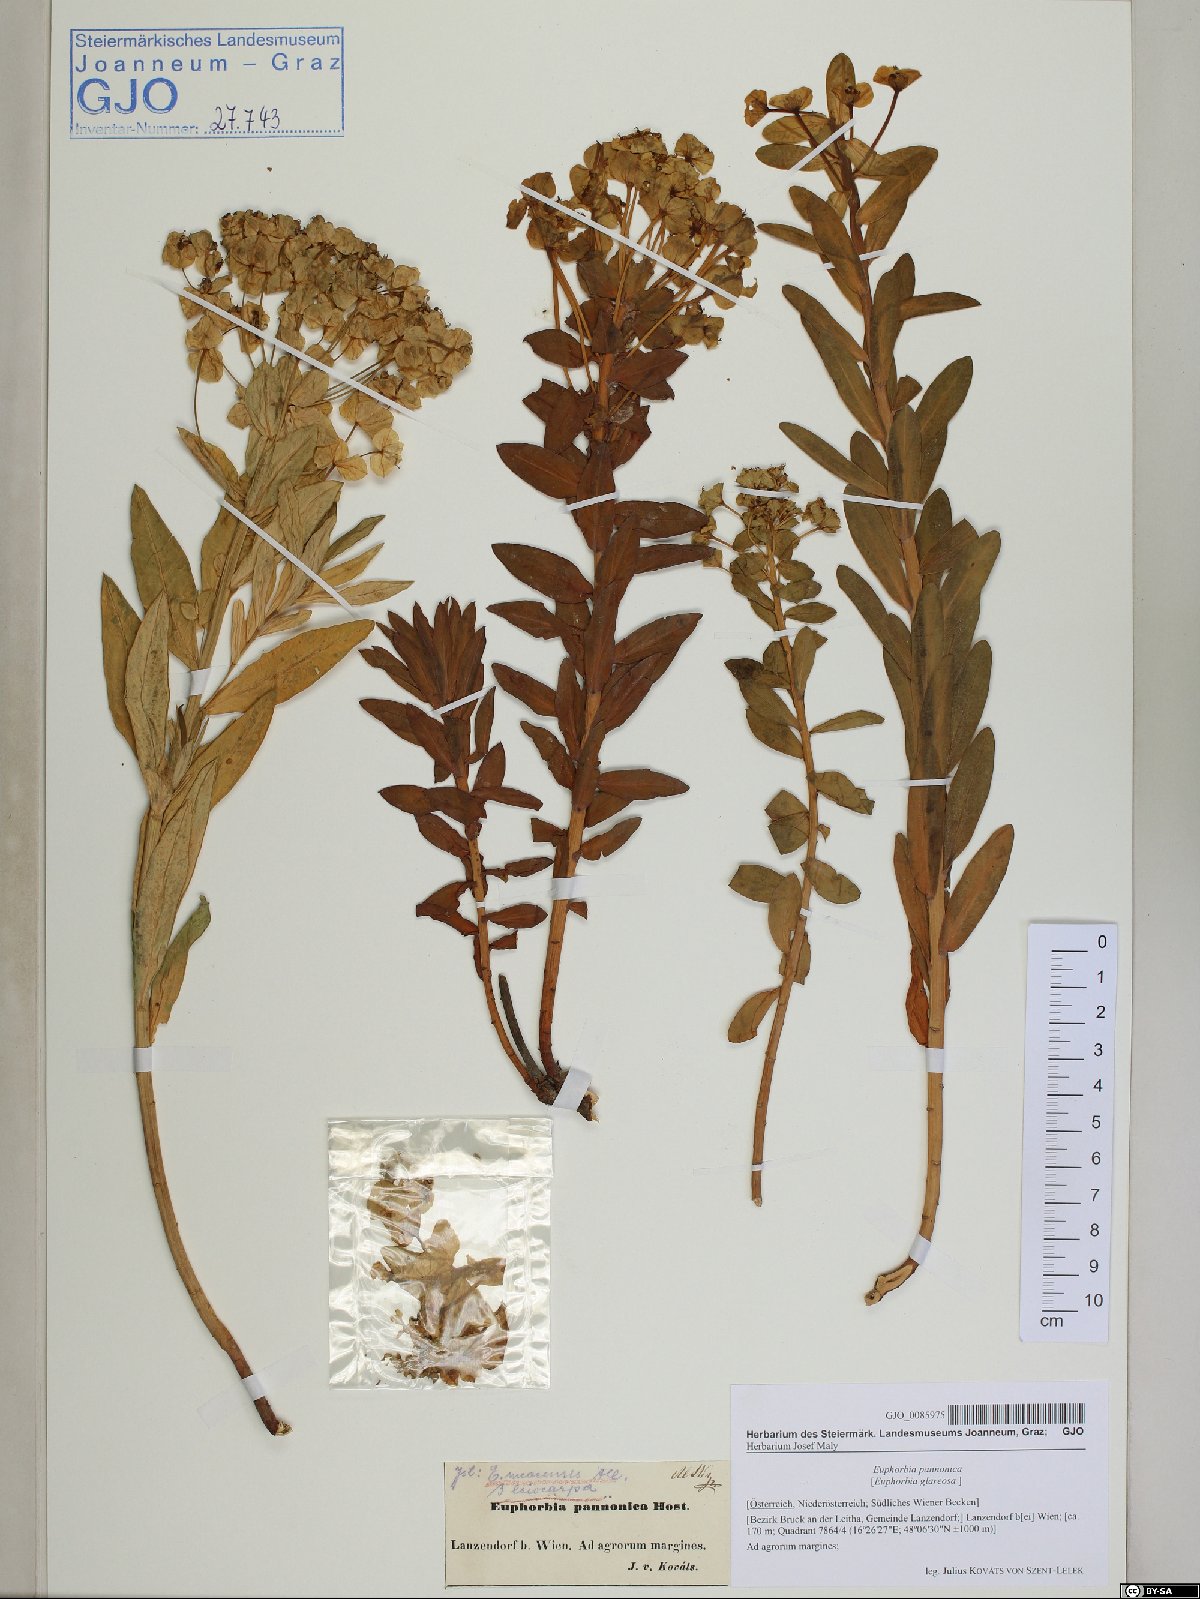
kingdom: Plantae
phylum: Tracheophyta
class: Magnoliopsida
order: Malpighiales
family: Euphorbiaceae
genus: Euphorbia
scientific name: Euphorbia pannonica
